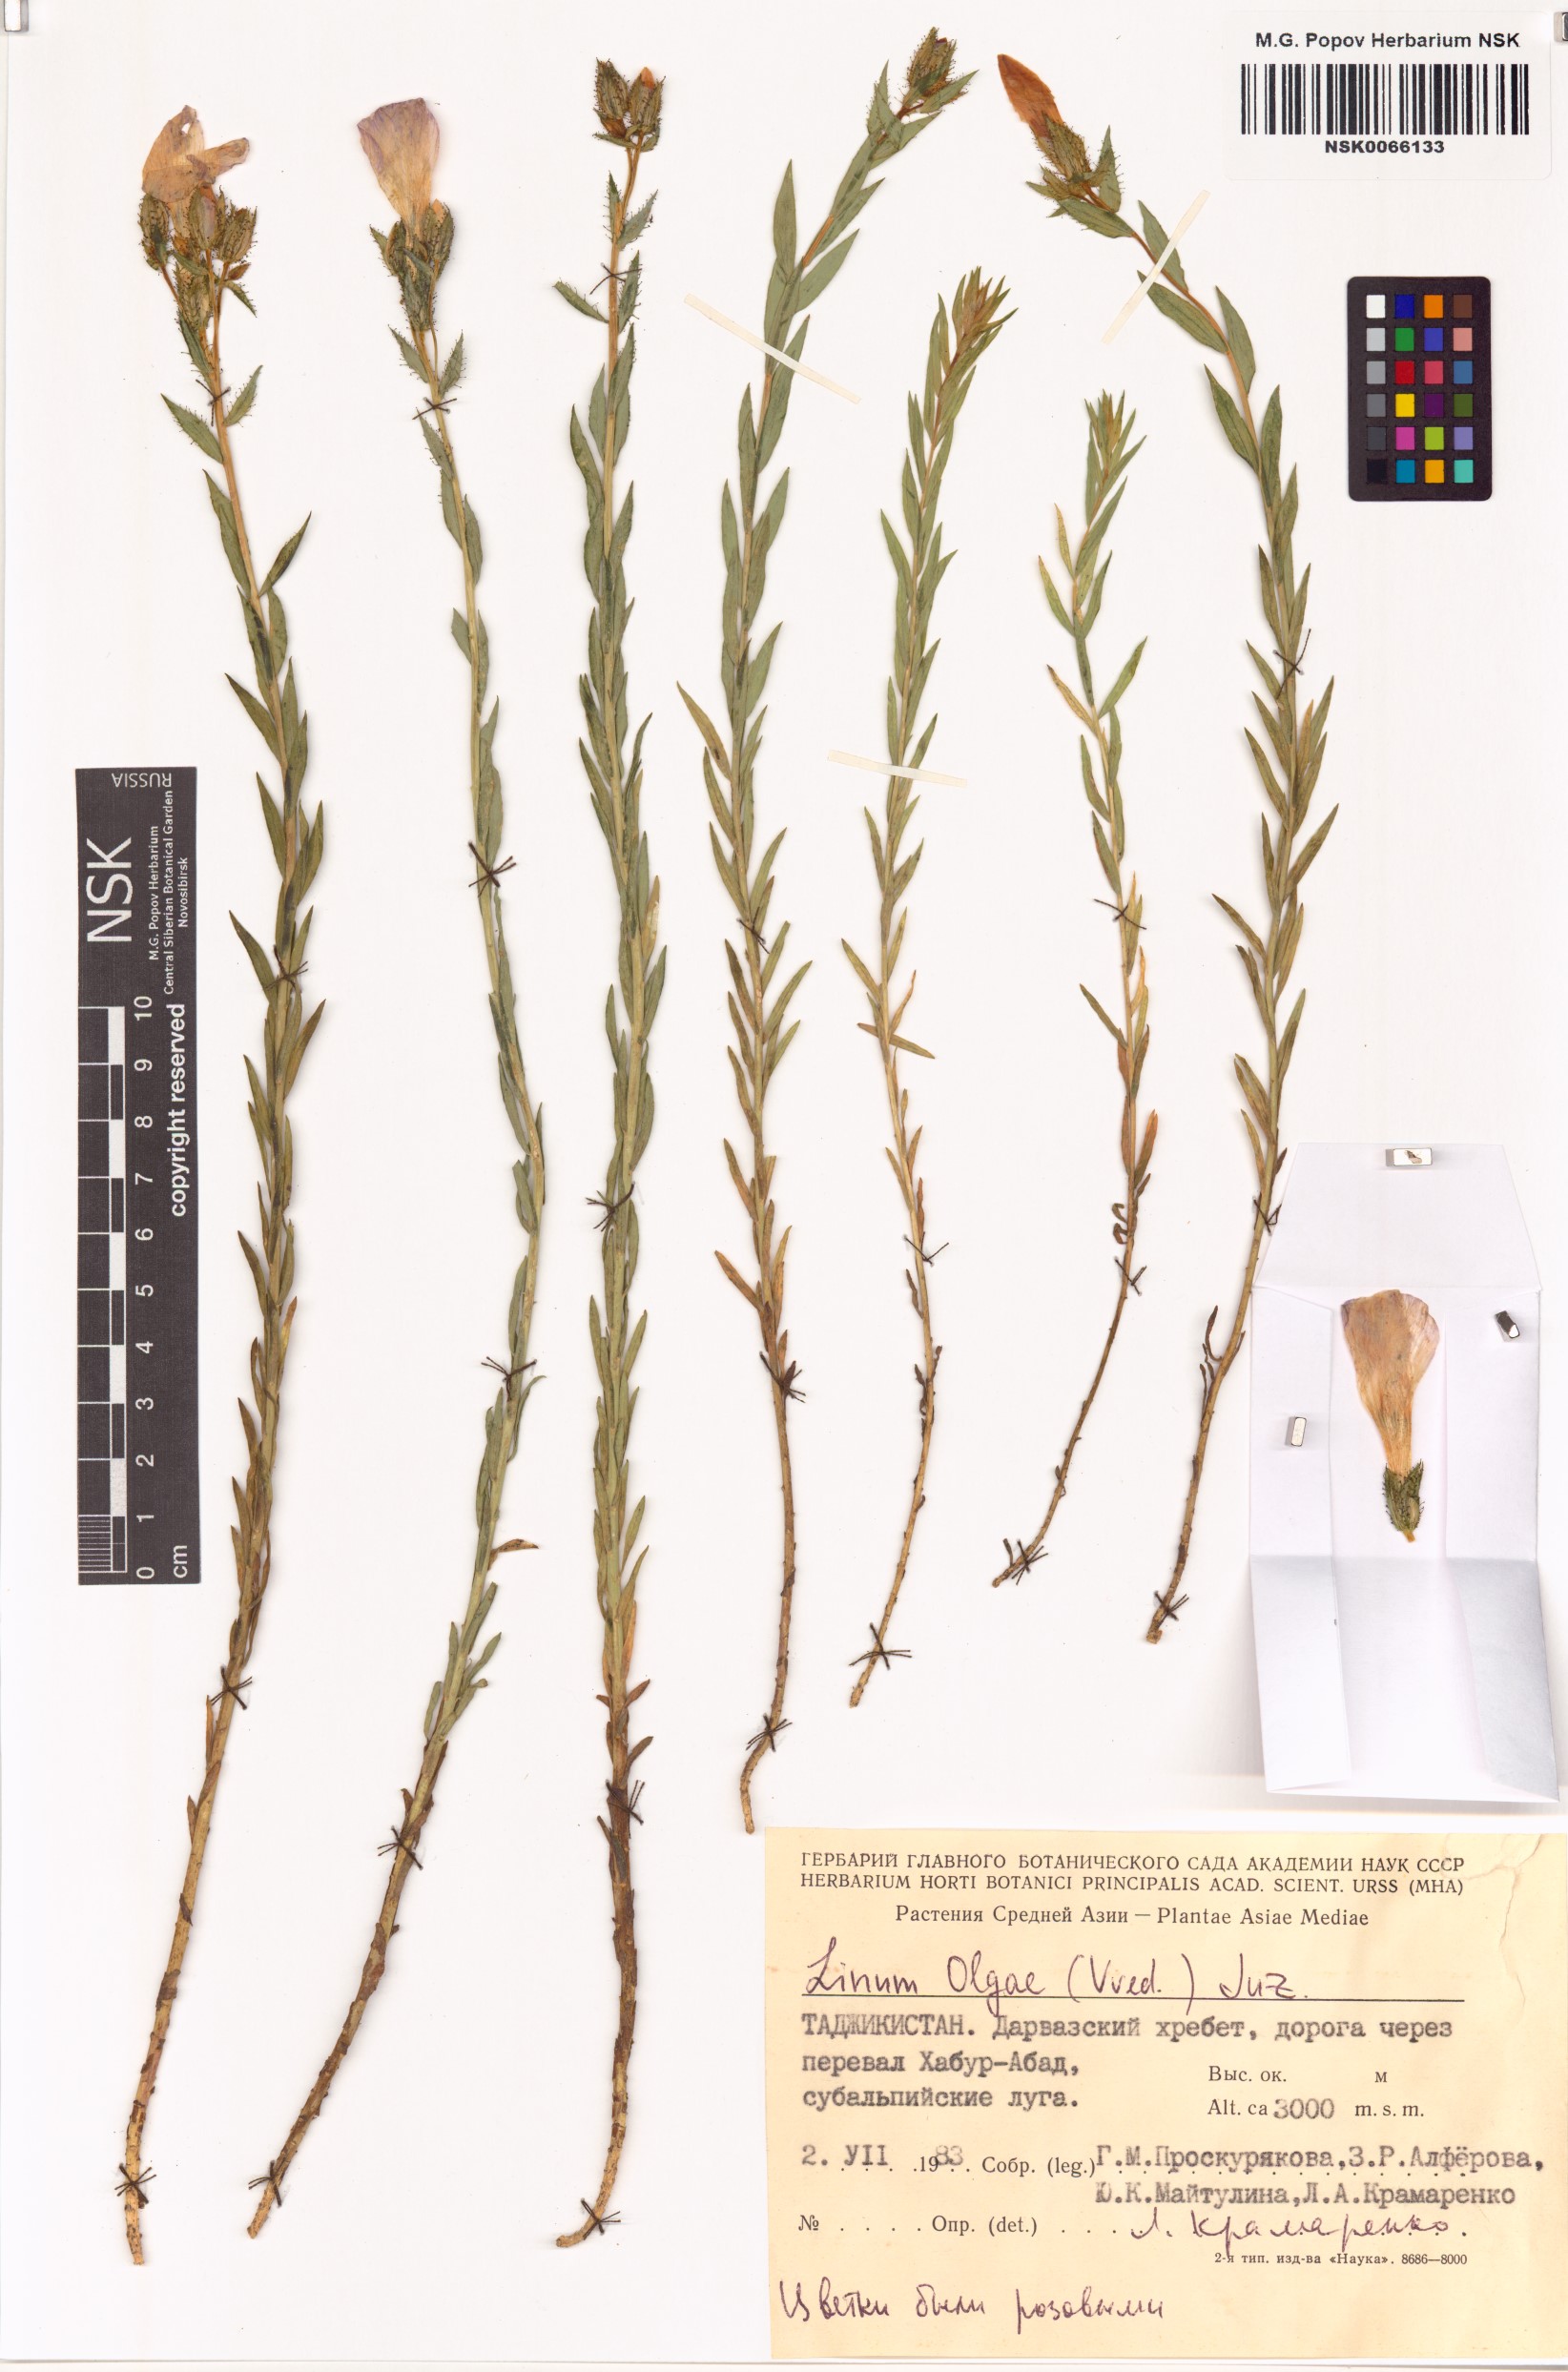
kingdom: Plantae
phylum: Tracheophyta
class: Magnoliopsida
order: Malpighiales
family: Linaceae
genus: Linum
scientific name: Linum olgae
